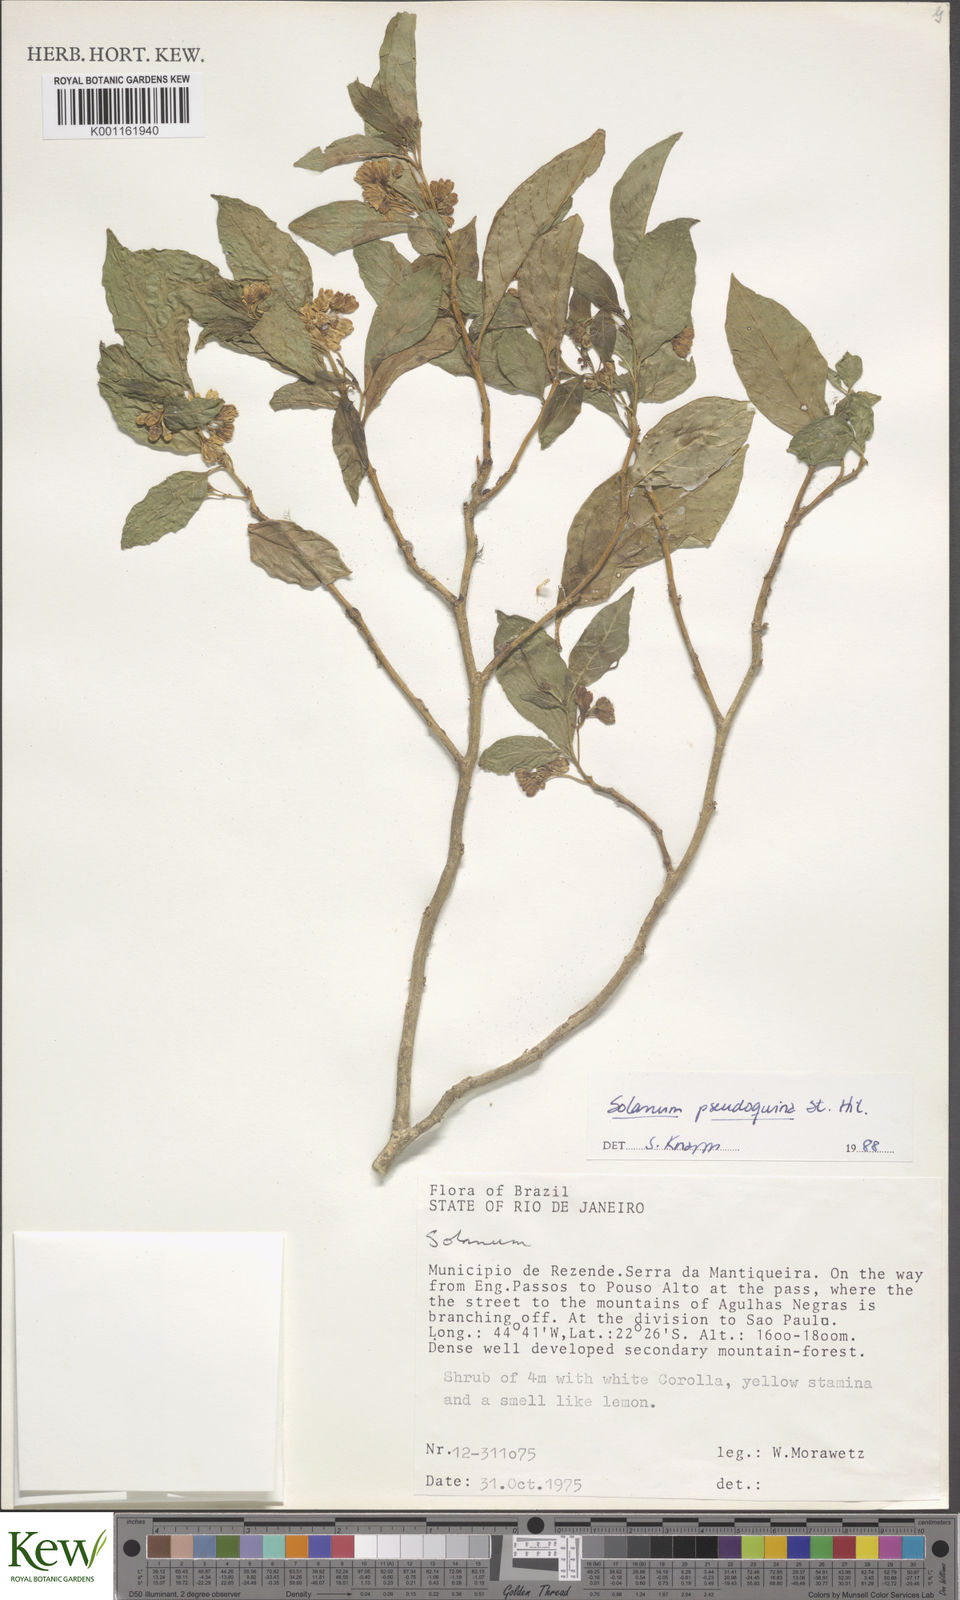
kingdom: Plantae
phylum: Tracheophyta
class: Magnoliopsida
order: Solanales
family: Solanaceae
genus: Solanum
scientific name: Solanum pseudoquina
